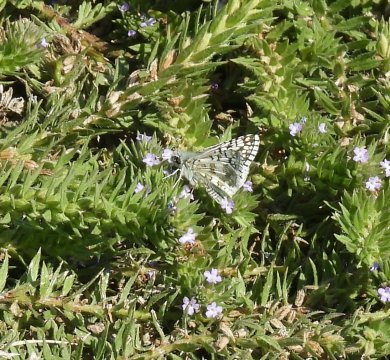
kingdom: Animalia
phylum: Arthropoda
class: Insecta
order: Lepidoptera
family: Hesperiidae
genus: Pyrgus
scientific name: Pyrgus communis
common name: Common Checkered-Skipper
